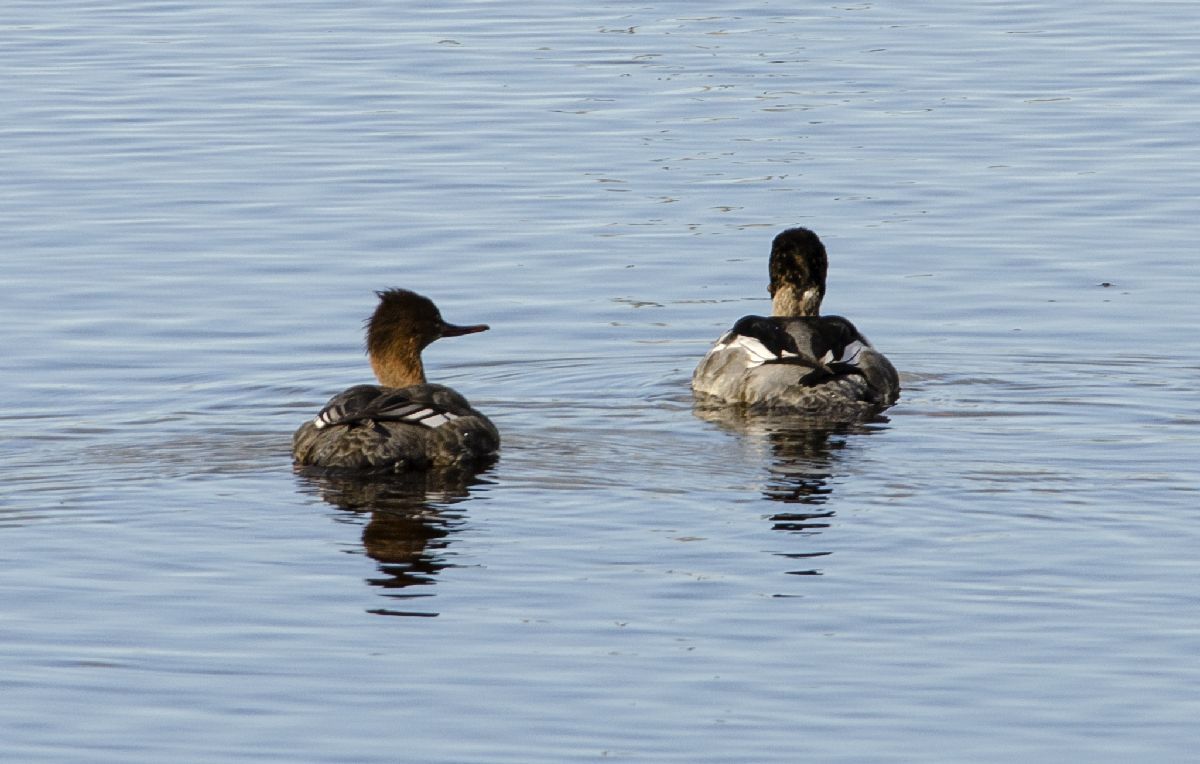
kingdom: Animalia
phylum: Chordata
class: Aves
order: Anseriformes
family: Anatidae
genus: Mergus
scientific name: Mergus serrator
